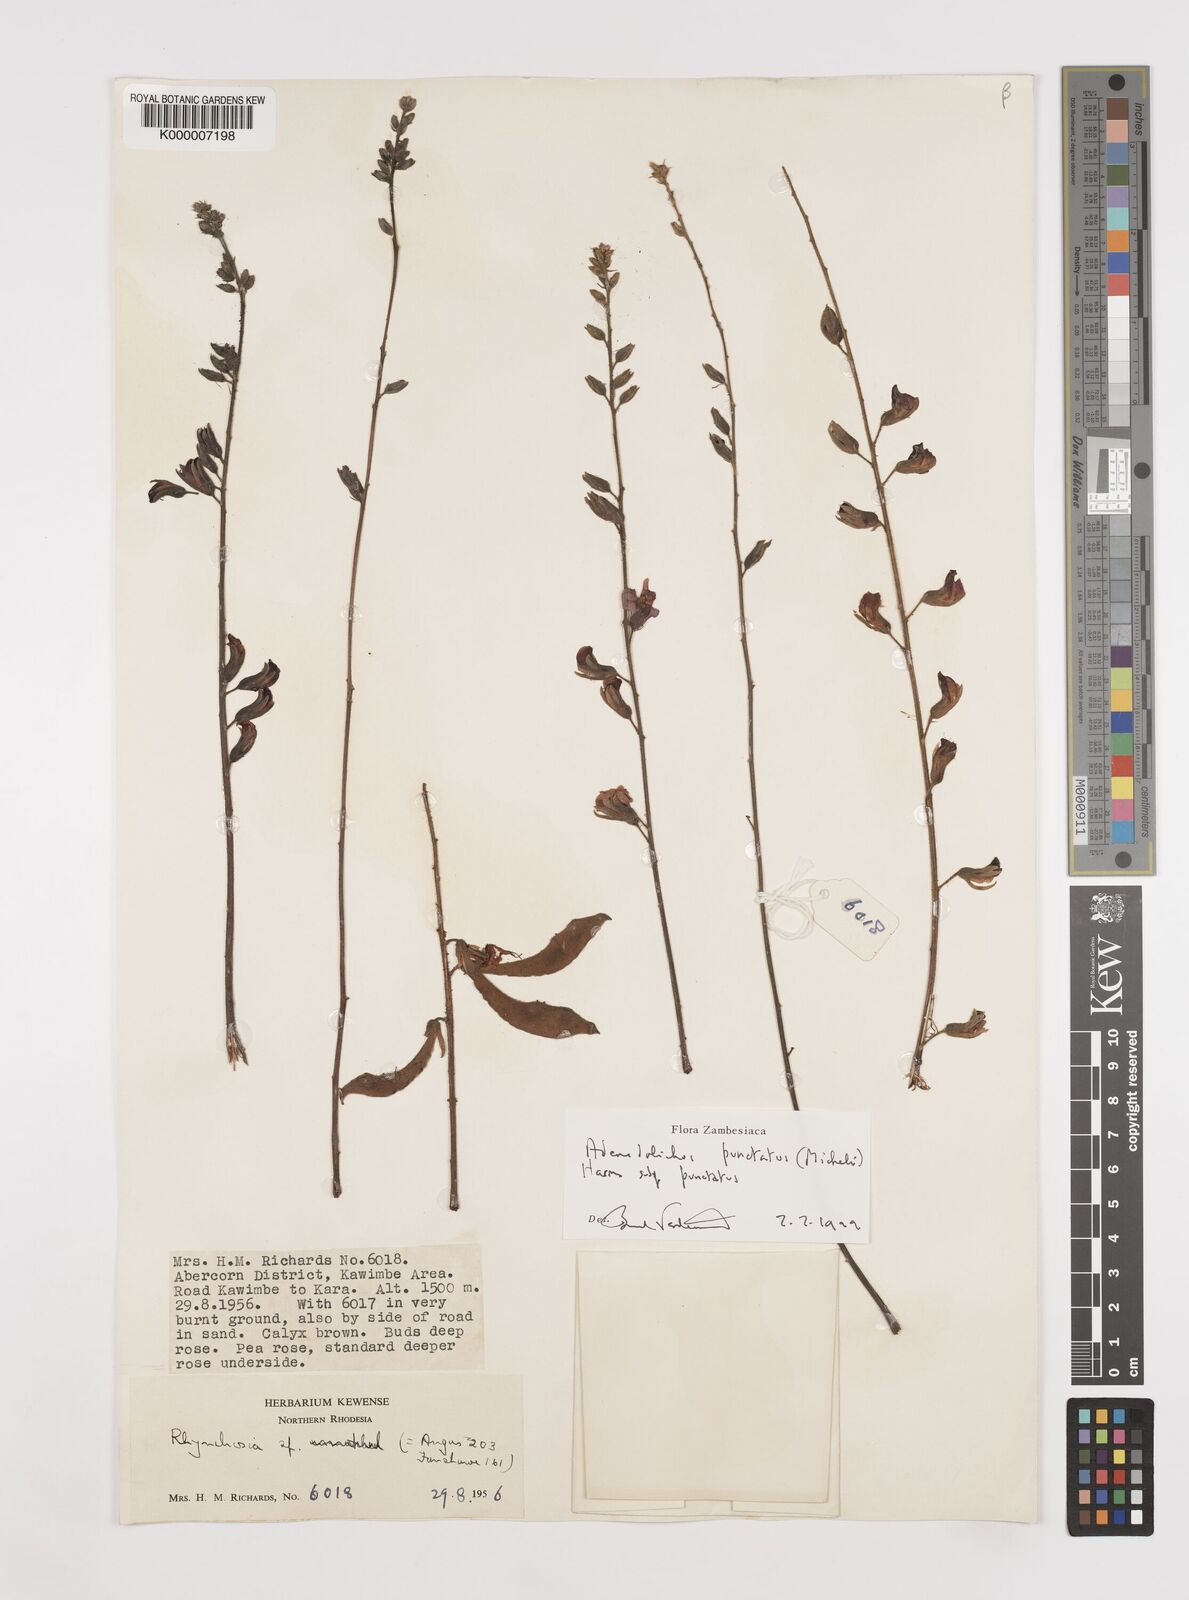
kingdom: Plantae
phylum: Tracheophyta
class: Magnoliopsida
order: Fabales
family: Fabaceae
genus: Adenodolichos
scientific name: Adenodolichos punctatus
